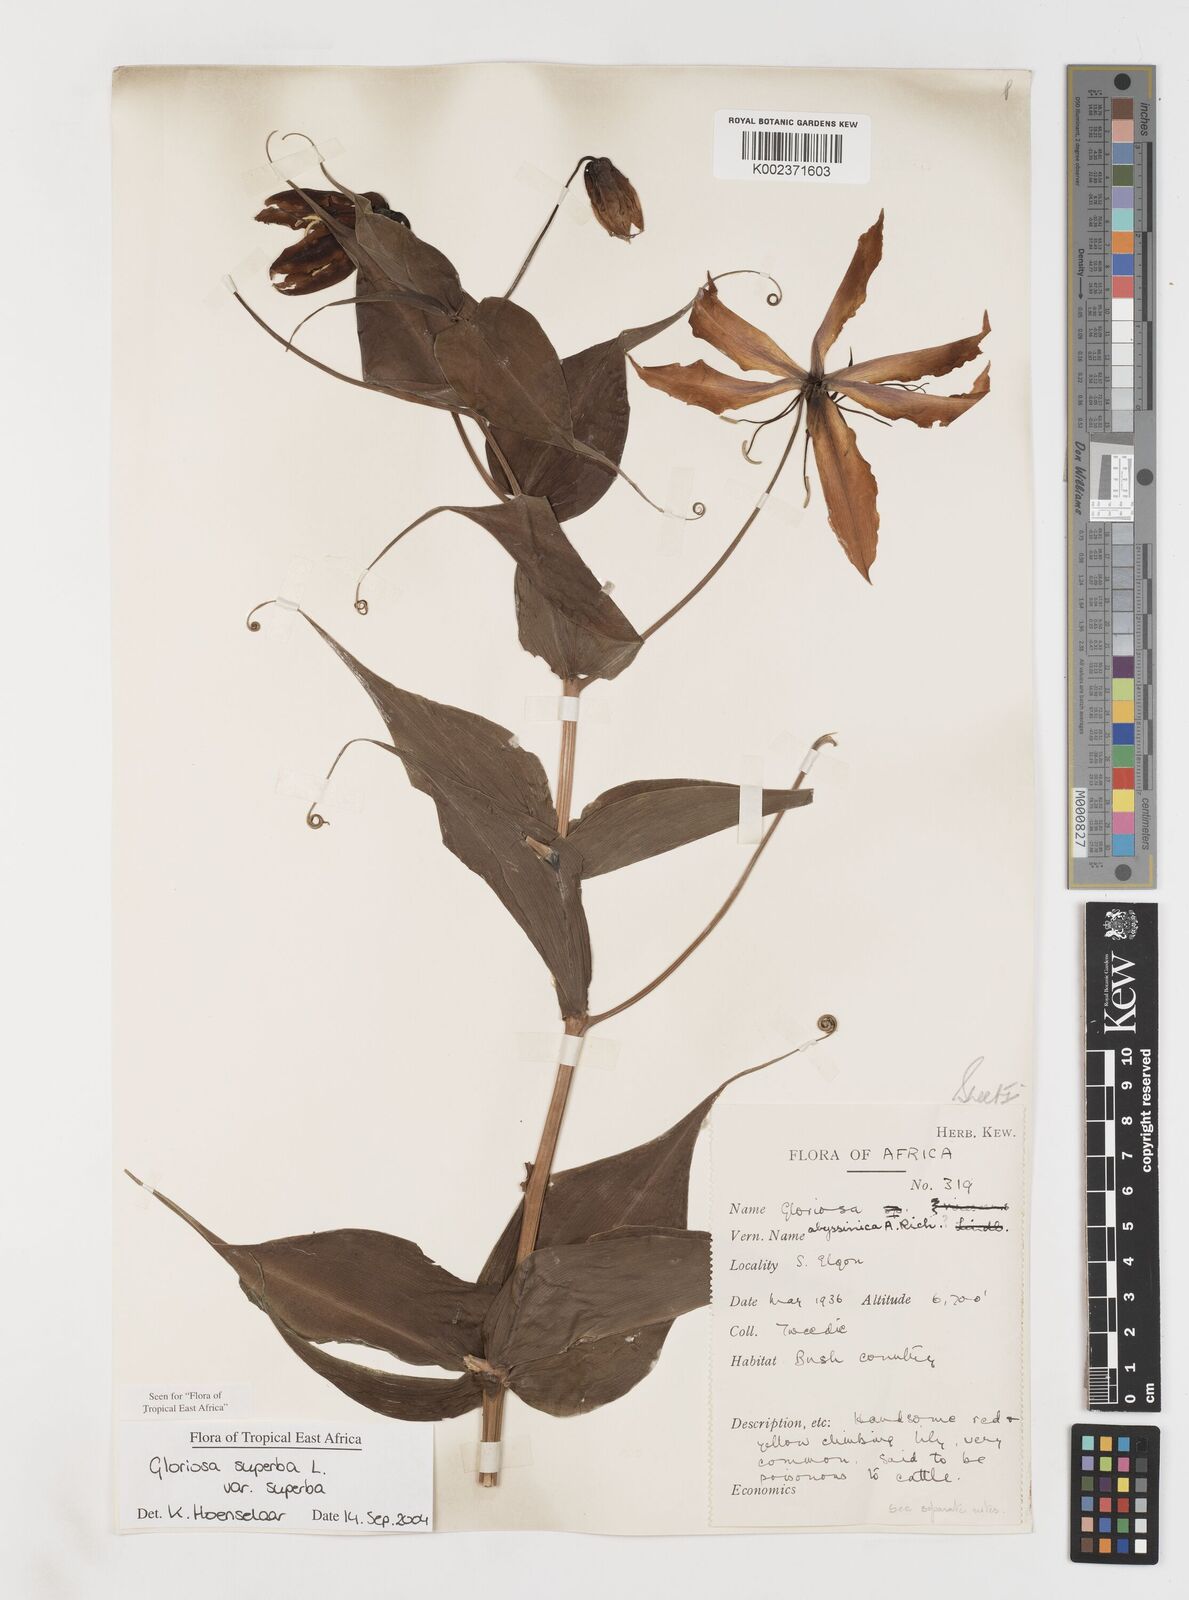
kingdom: Plantae
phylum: Tracheophyta
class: Liliopsida
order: Liliales
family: Colchicaceae
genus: Gloriosa
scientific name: Gloriosa simplex
